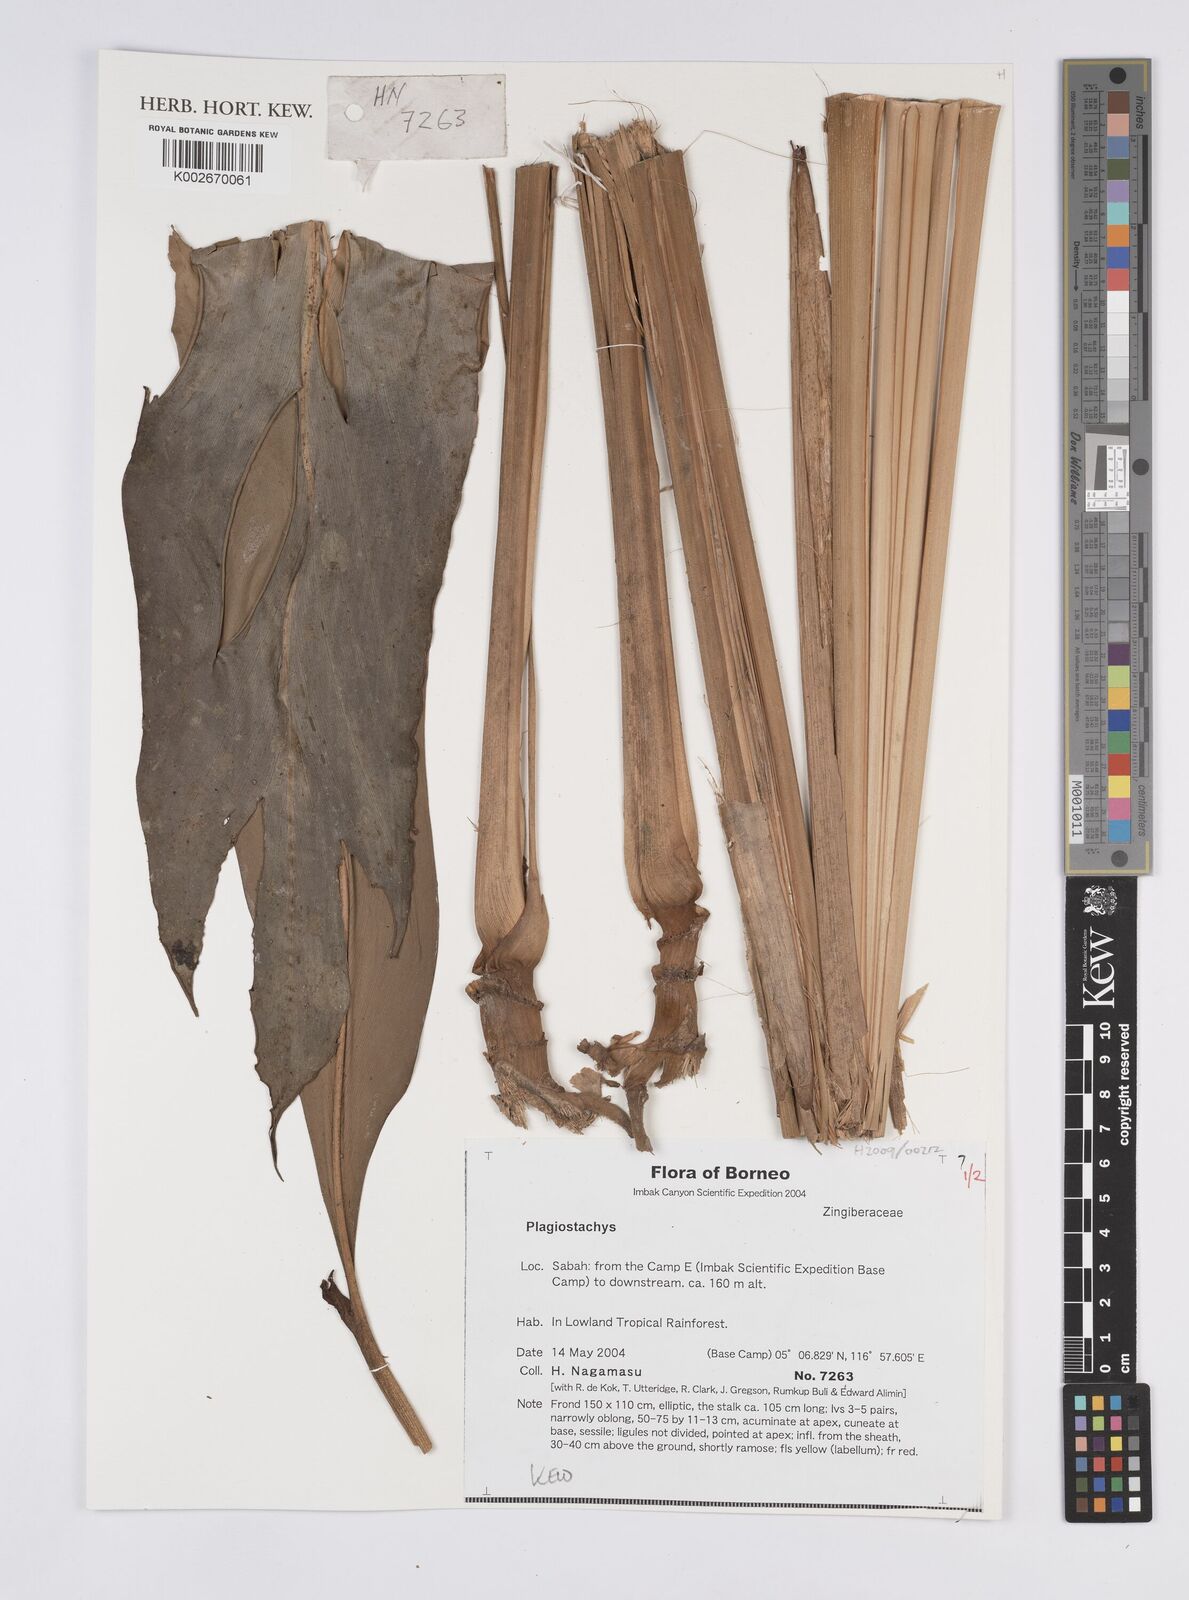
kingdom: Plantae
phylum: Tracheophyta
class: Liliopsida
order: Zingiberales
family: Zingiberaceae
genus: Plagiostachys
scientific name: Plagiostachys
